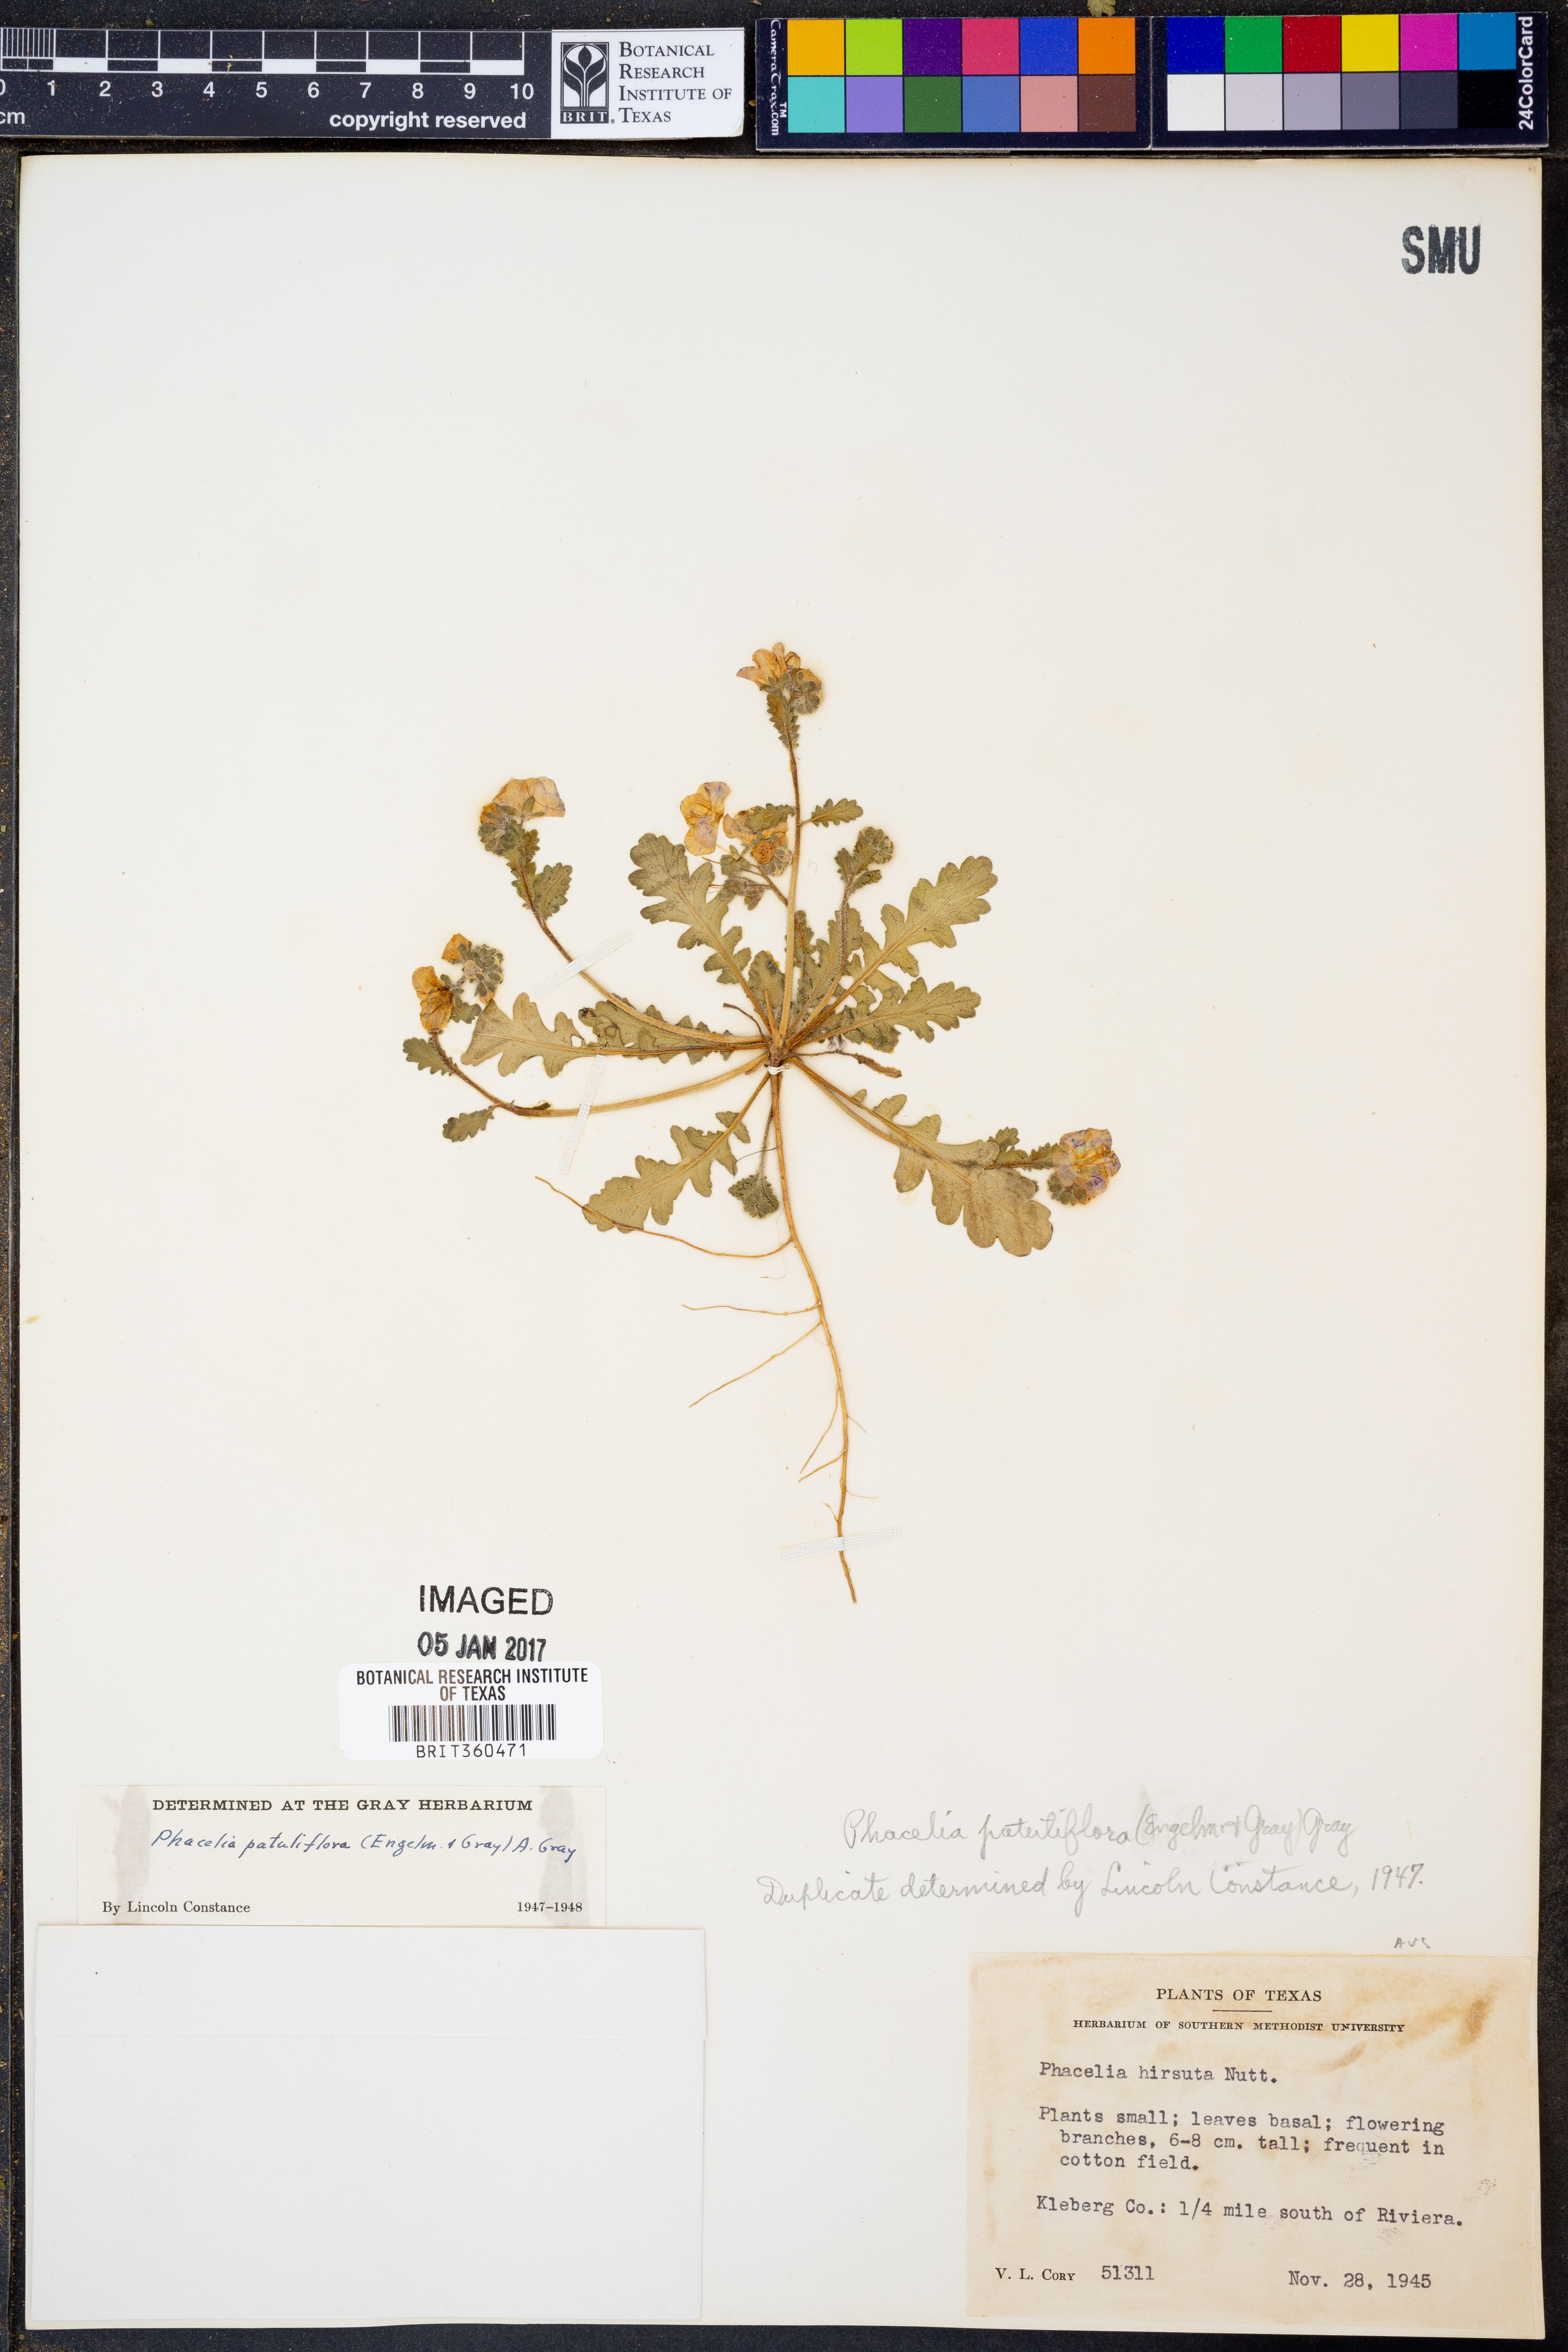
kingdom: Plantae
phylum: Tracheophyta
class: Magnoliopsida
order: Boraginales
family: Hydrophyllaceae
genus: Phacelia
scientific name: Phacelia patuliflora
